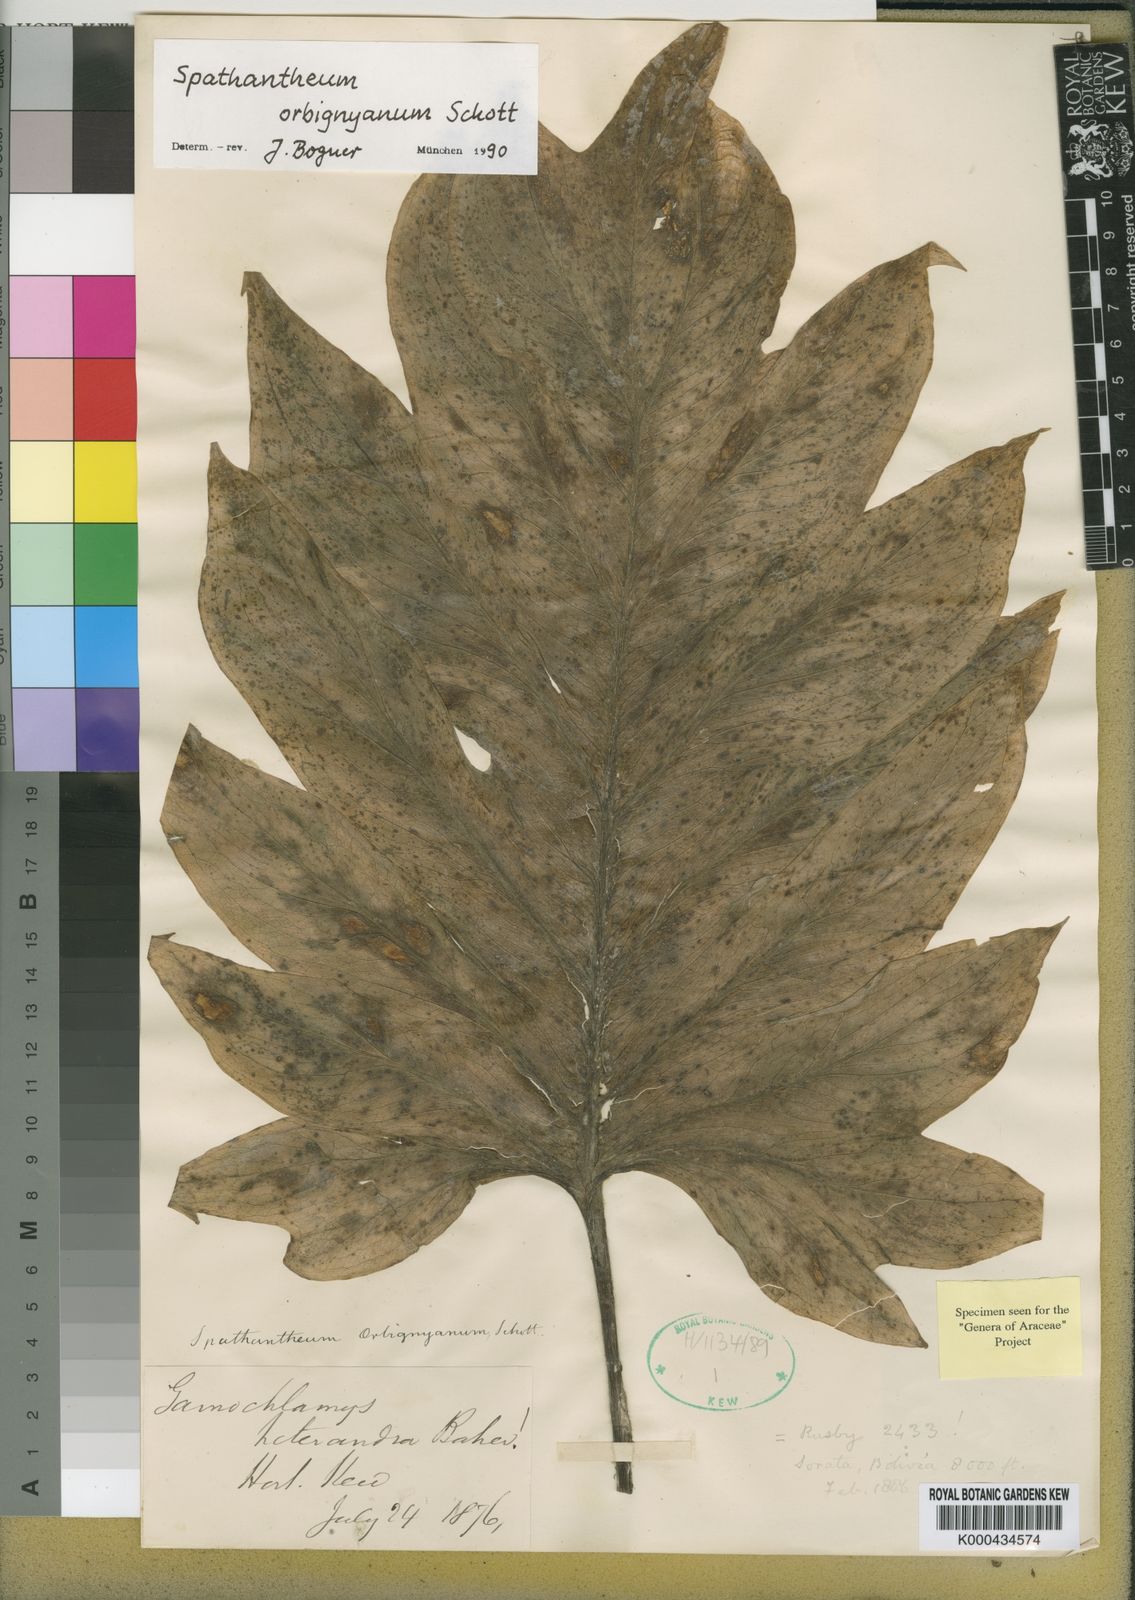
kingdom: Plantae
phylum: Tracheophyta
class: Liliopsida
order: Alismatales
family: Araceae
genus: Spathantheum
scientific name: Spathantheum orbignyanum
